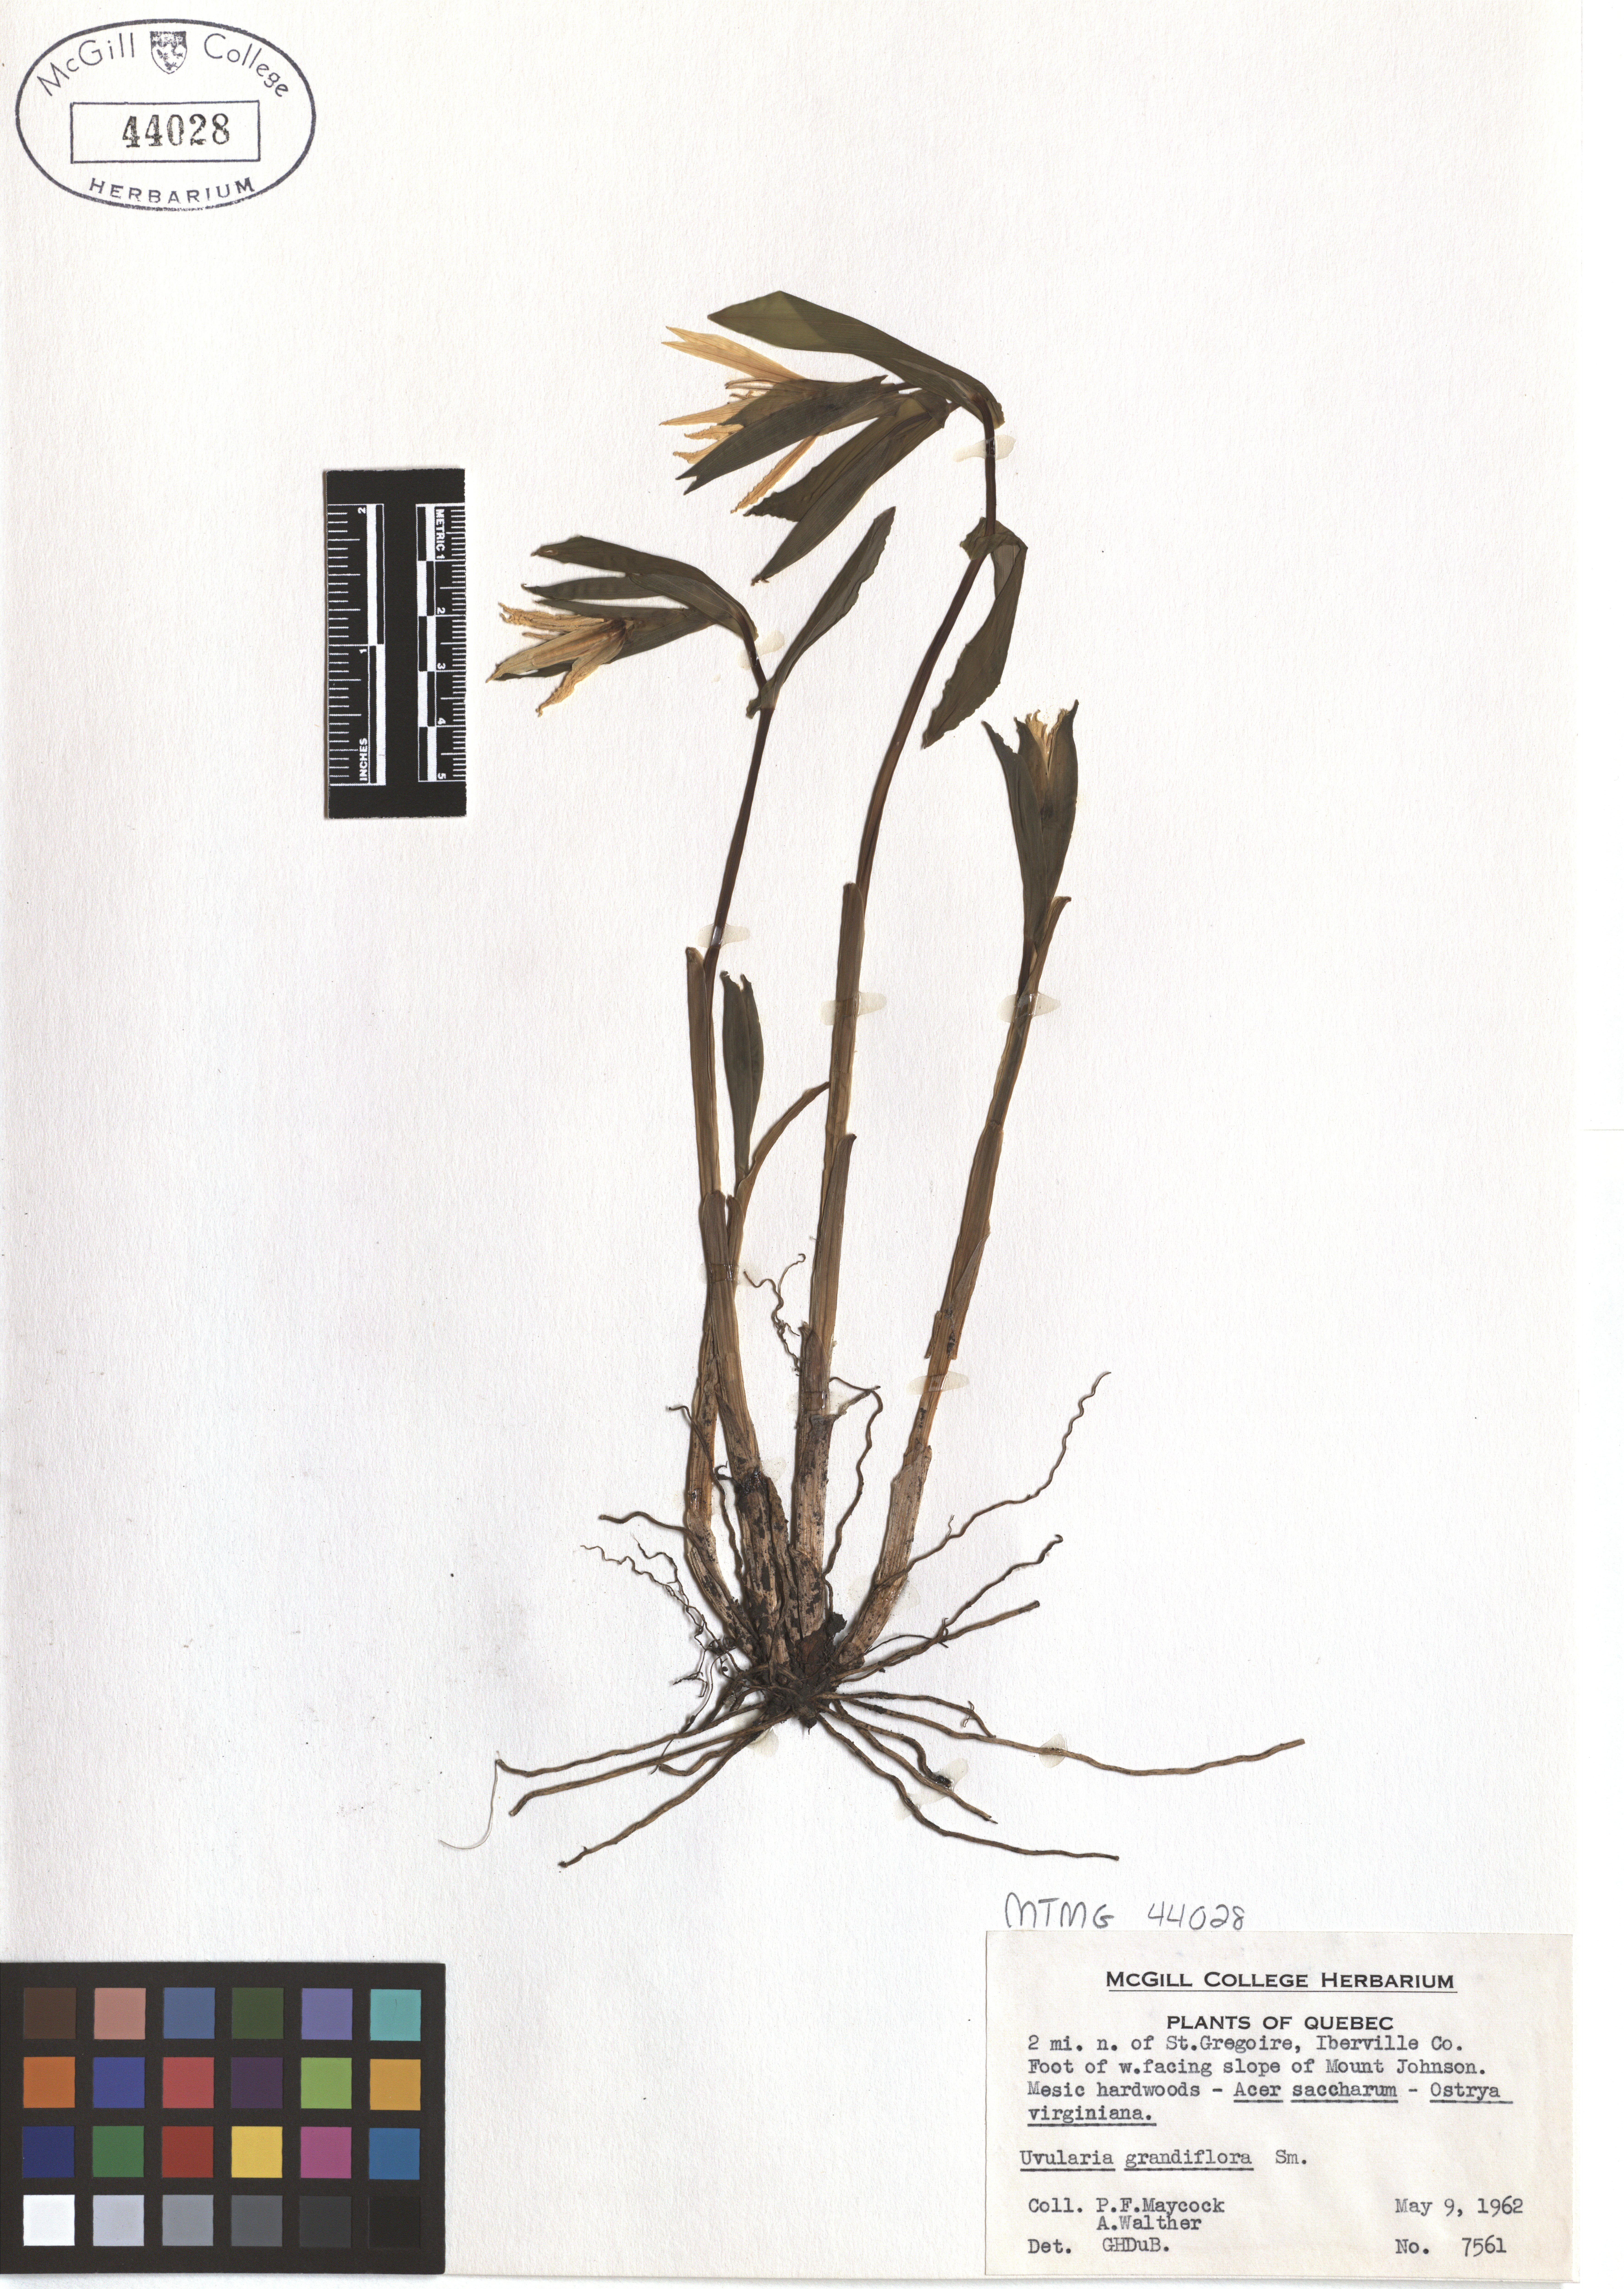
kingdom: Plantae
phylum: Tracheophyta
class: Liliopsida
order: Liliales
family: Colchicaceae
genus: Uvularia
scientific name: Uvularia grandiflora
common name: Bellwort
